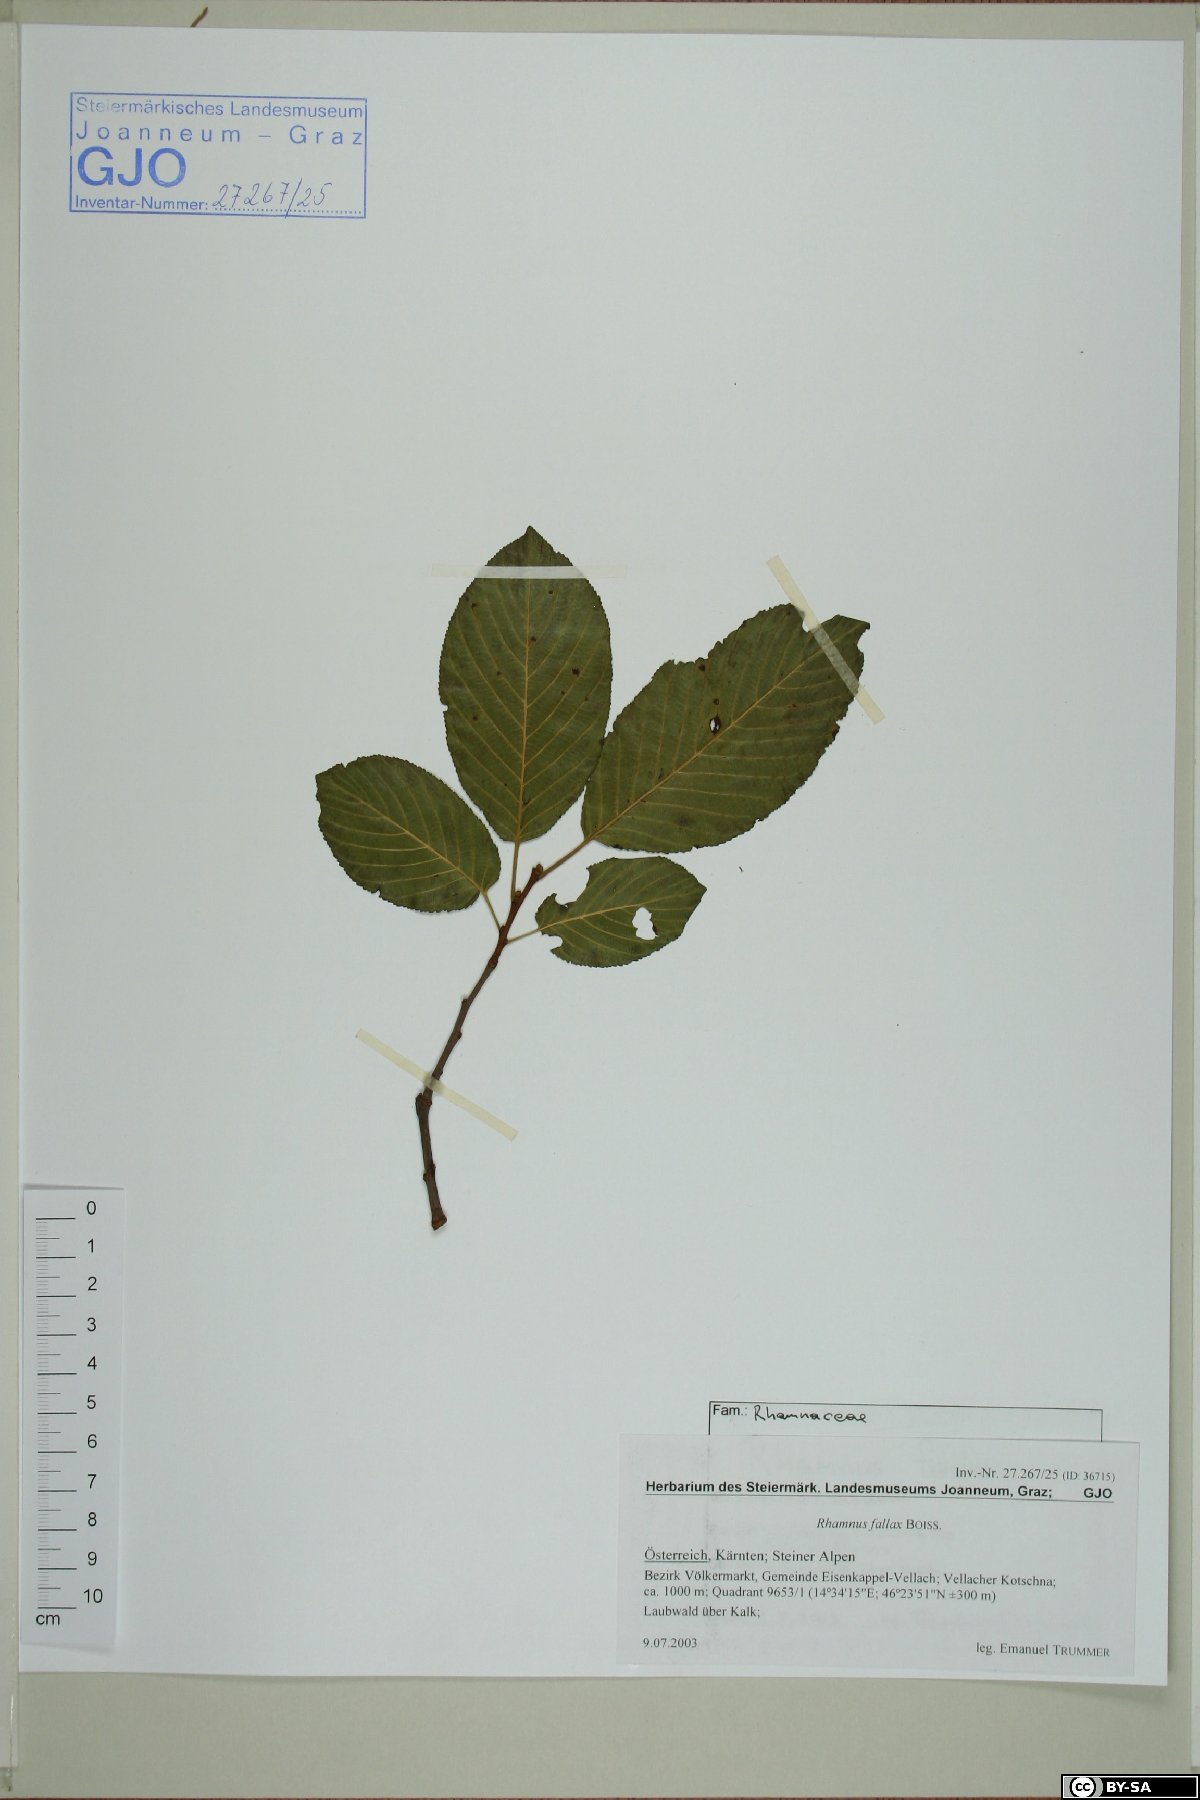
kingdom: Plantae
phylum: Tracheophyta
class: Magnoliopsida
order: Rosales
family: Rhamnaceae
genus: Atadinus
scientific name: Atadinus fallax
